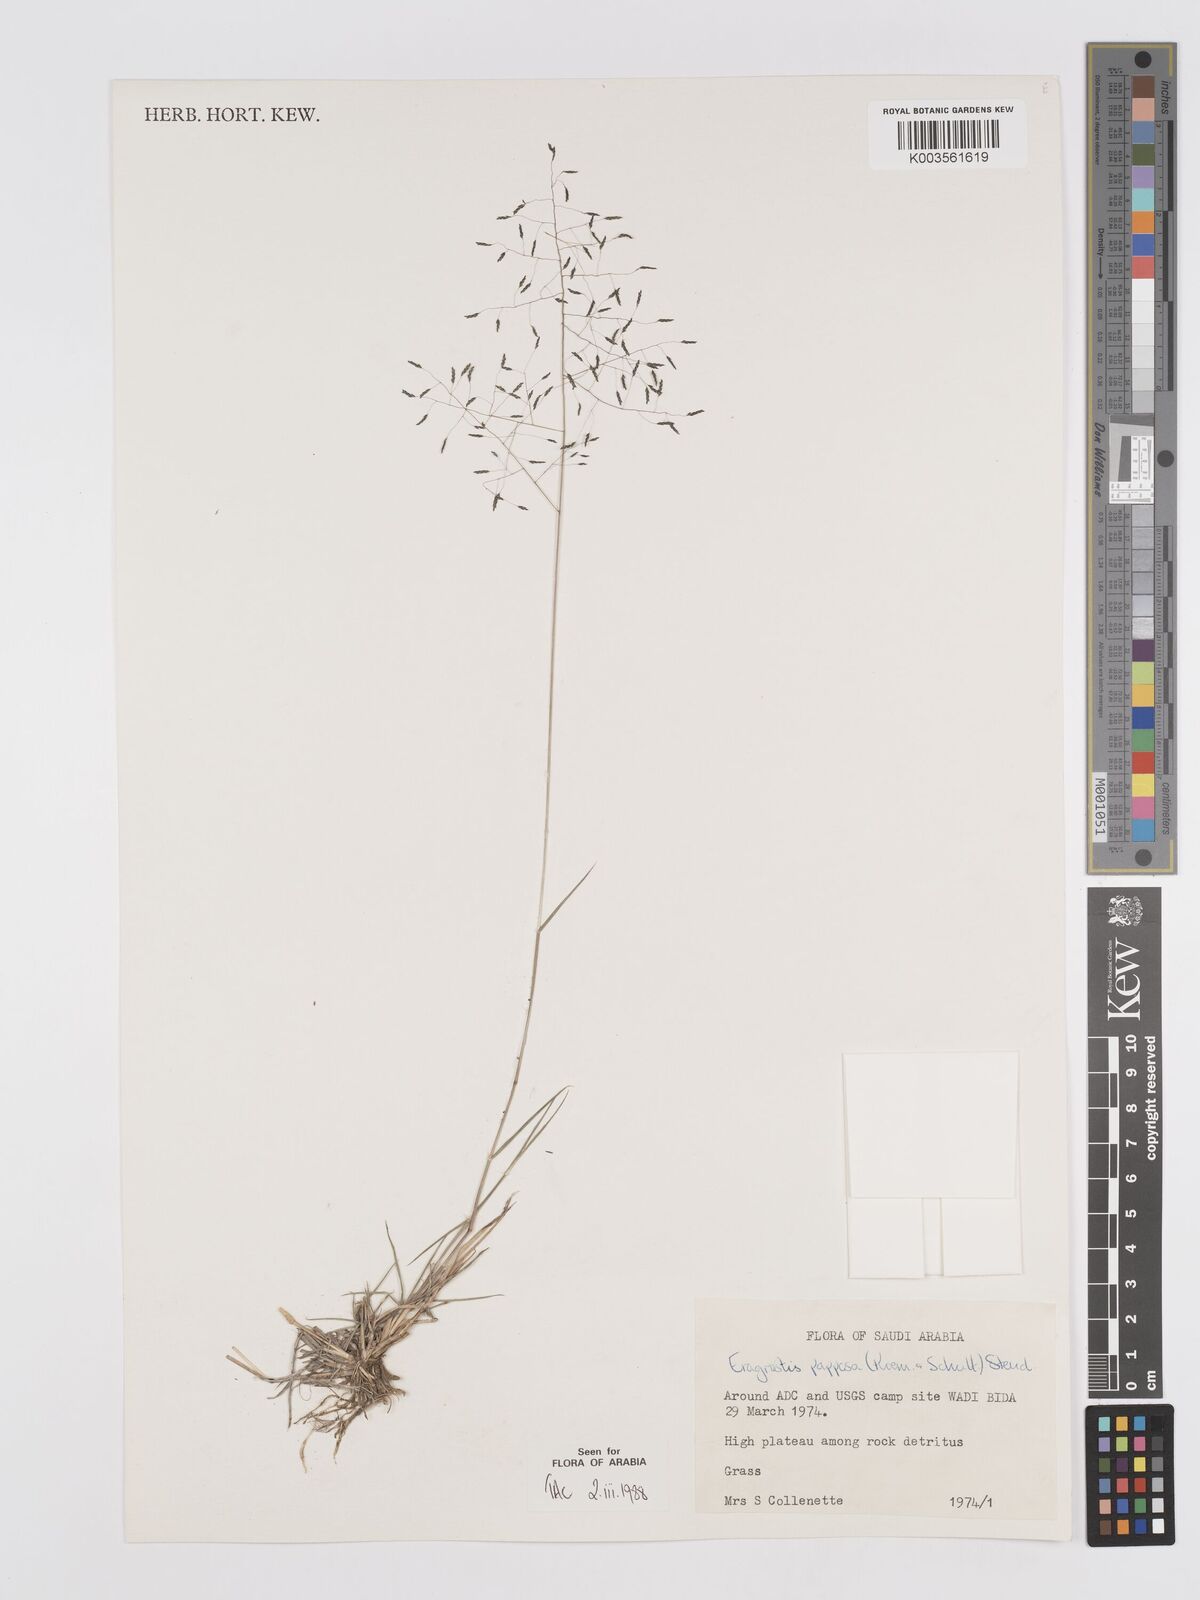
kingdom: Plantae
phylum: Tracheophyta
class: Liliopsida
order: Poales
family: Poaceae
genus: Eragrostis
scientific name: Eragrostis papposa
